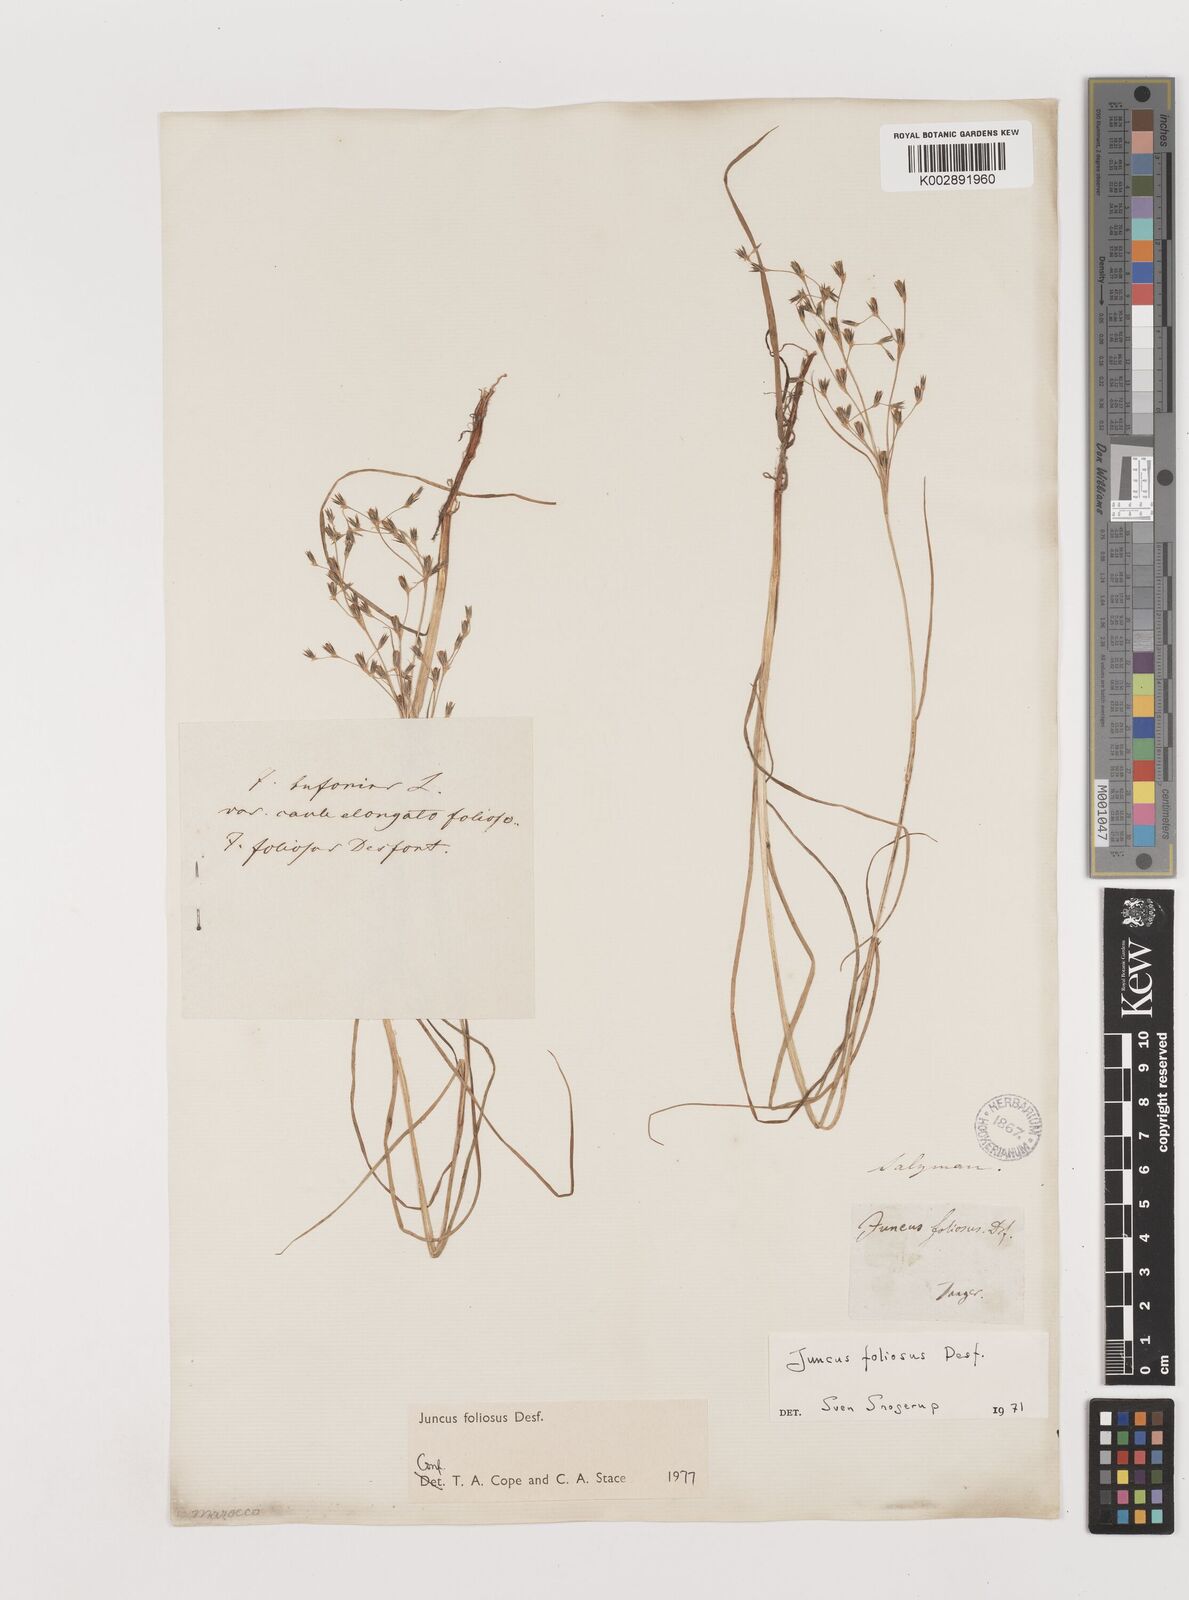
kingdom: Plantae
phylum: Tracheophyta
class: Liliopsida
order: Poales
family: Juncaceae
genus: Juncus
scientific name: Juncus acutiflorus
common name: Sharp-flowered rush
